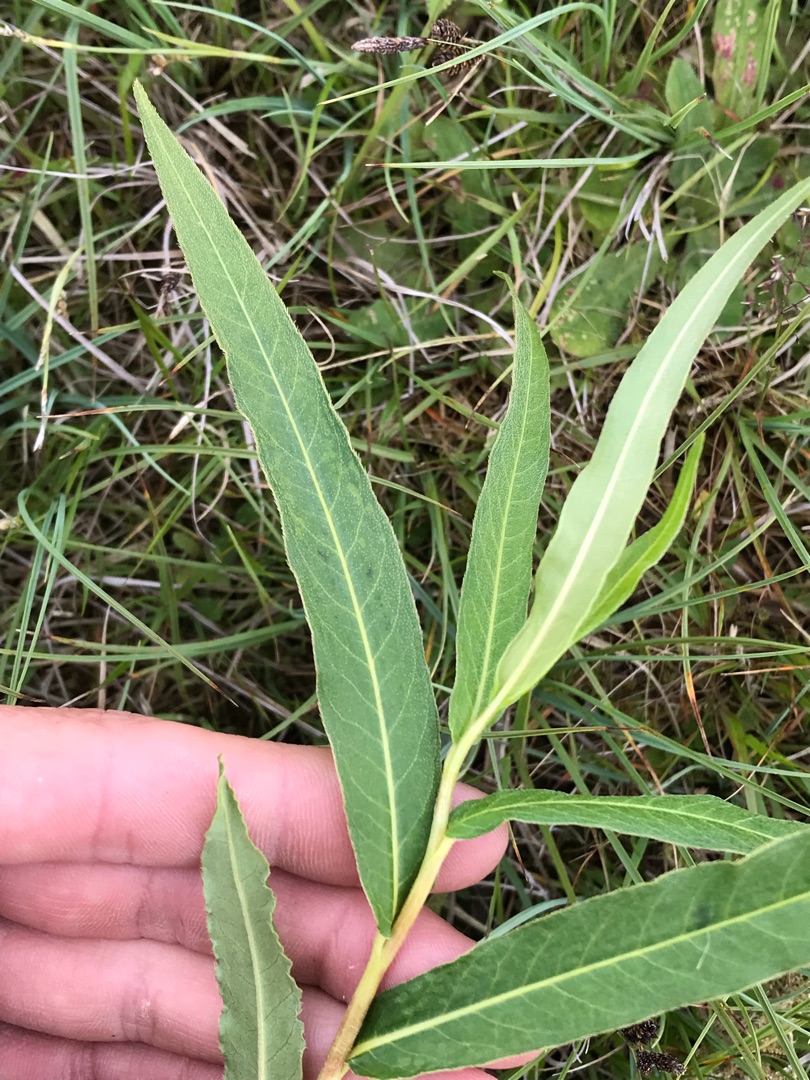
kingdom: Plantae
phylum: Tracheophyta
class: Magnoliopsida
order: Caryophyllales
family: Polygonaceae
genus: Persicaria
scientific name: Persicaria amphibia
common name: Vand-pileurt
